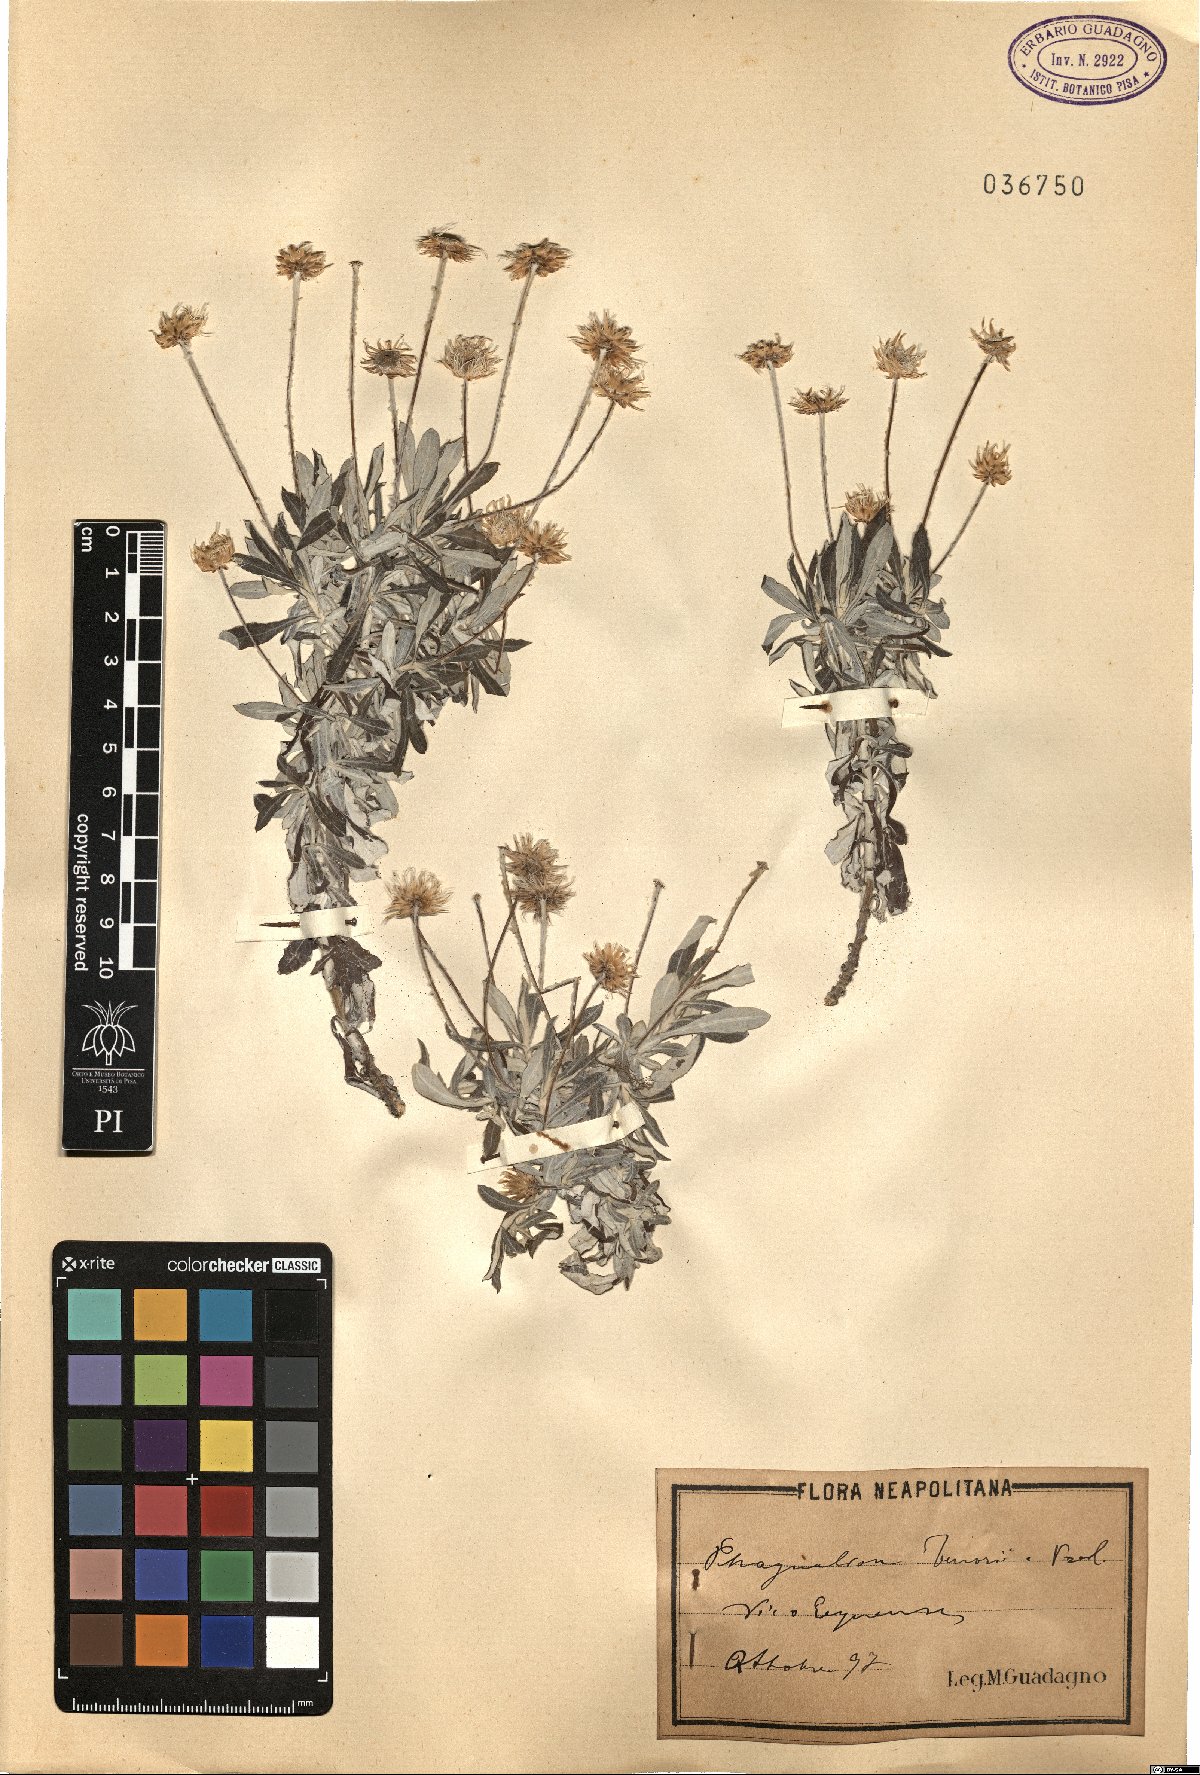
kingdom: Plantae
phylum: Tracheophyta
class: Magnoliopsida
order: Asterales
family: Asteraceae
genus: Phagnalon
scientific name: Phagnalon graecum
